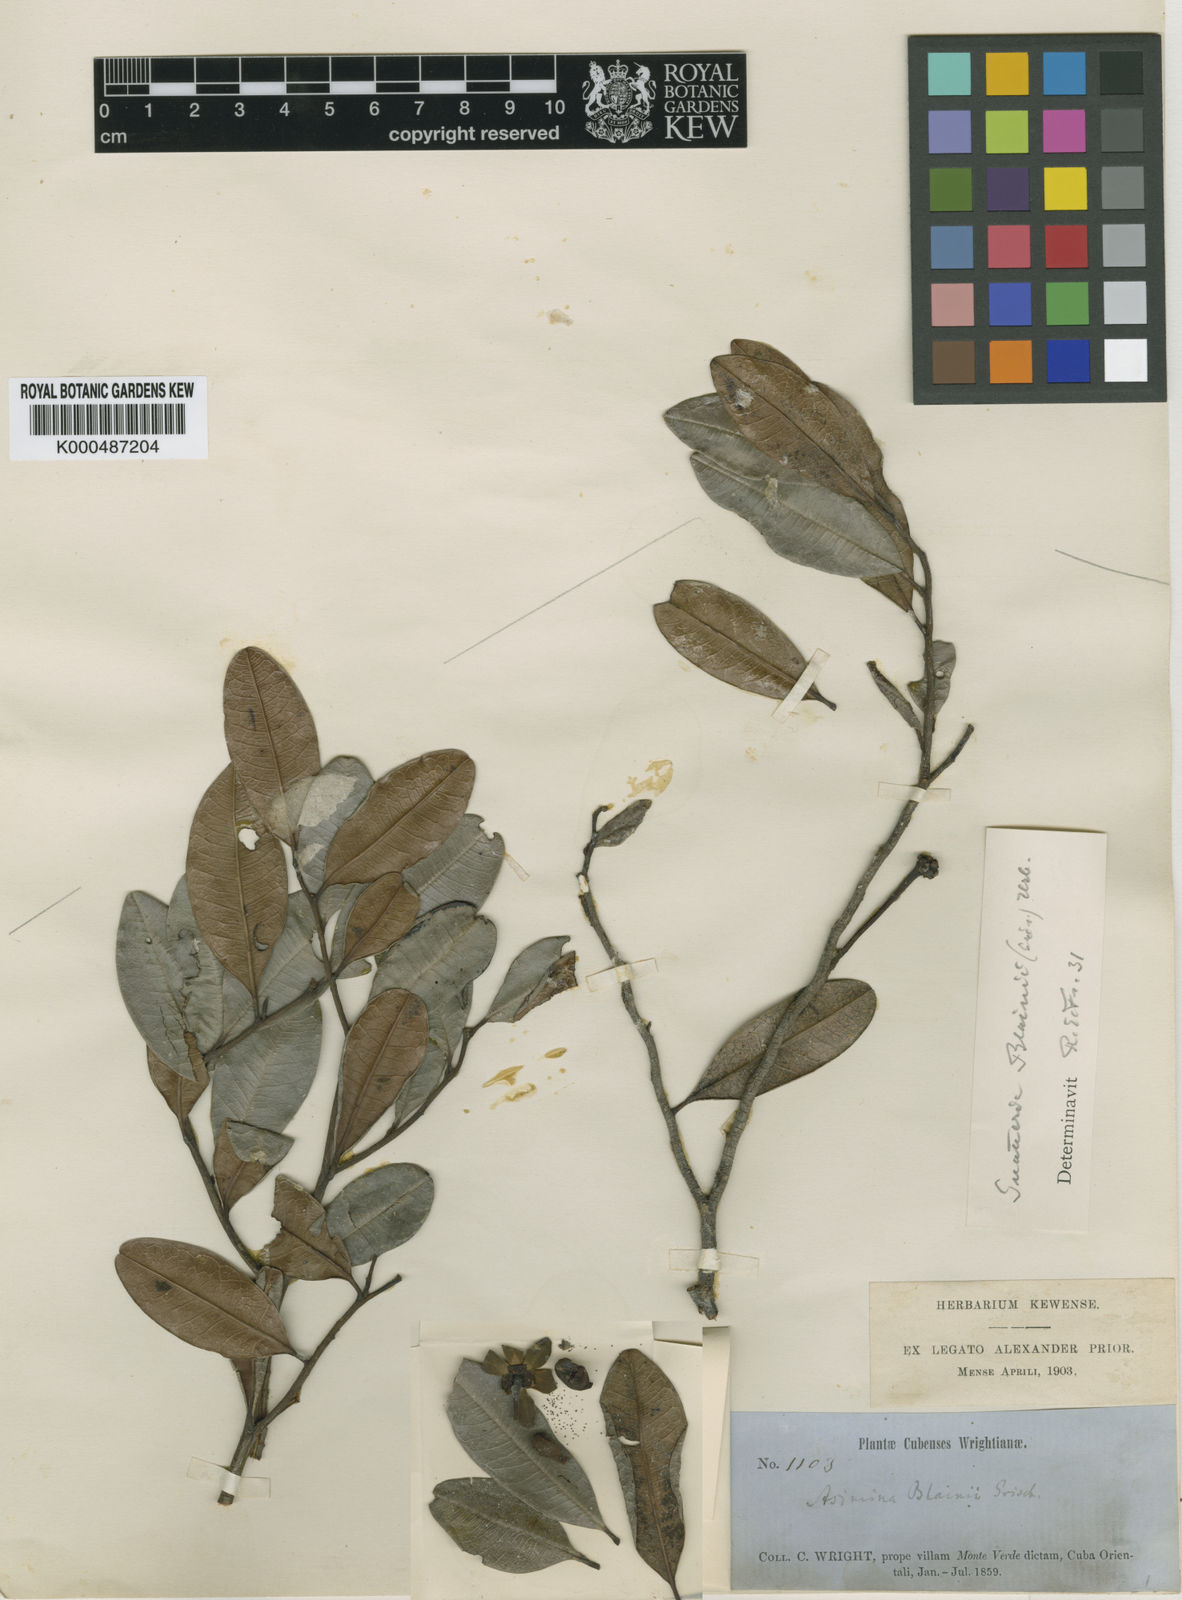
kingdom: Plantae
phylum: Tracheophyta
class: Magnoliopsida
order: Magnoliales
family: Annonaceae
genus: Guatteria
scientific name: Guatteria blainii
